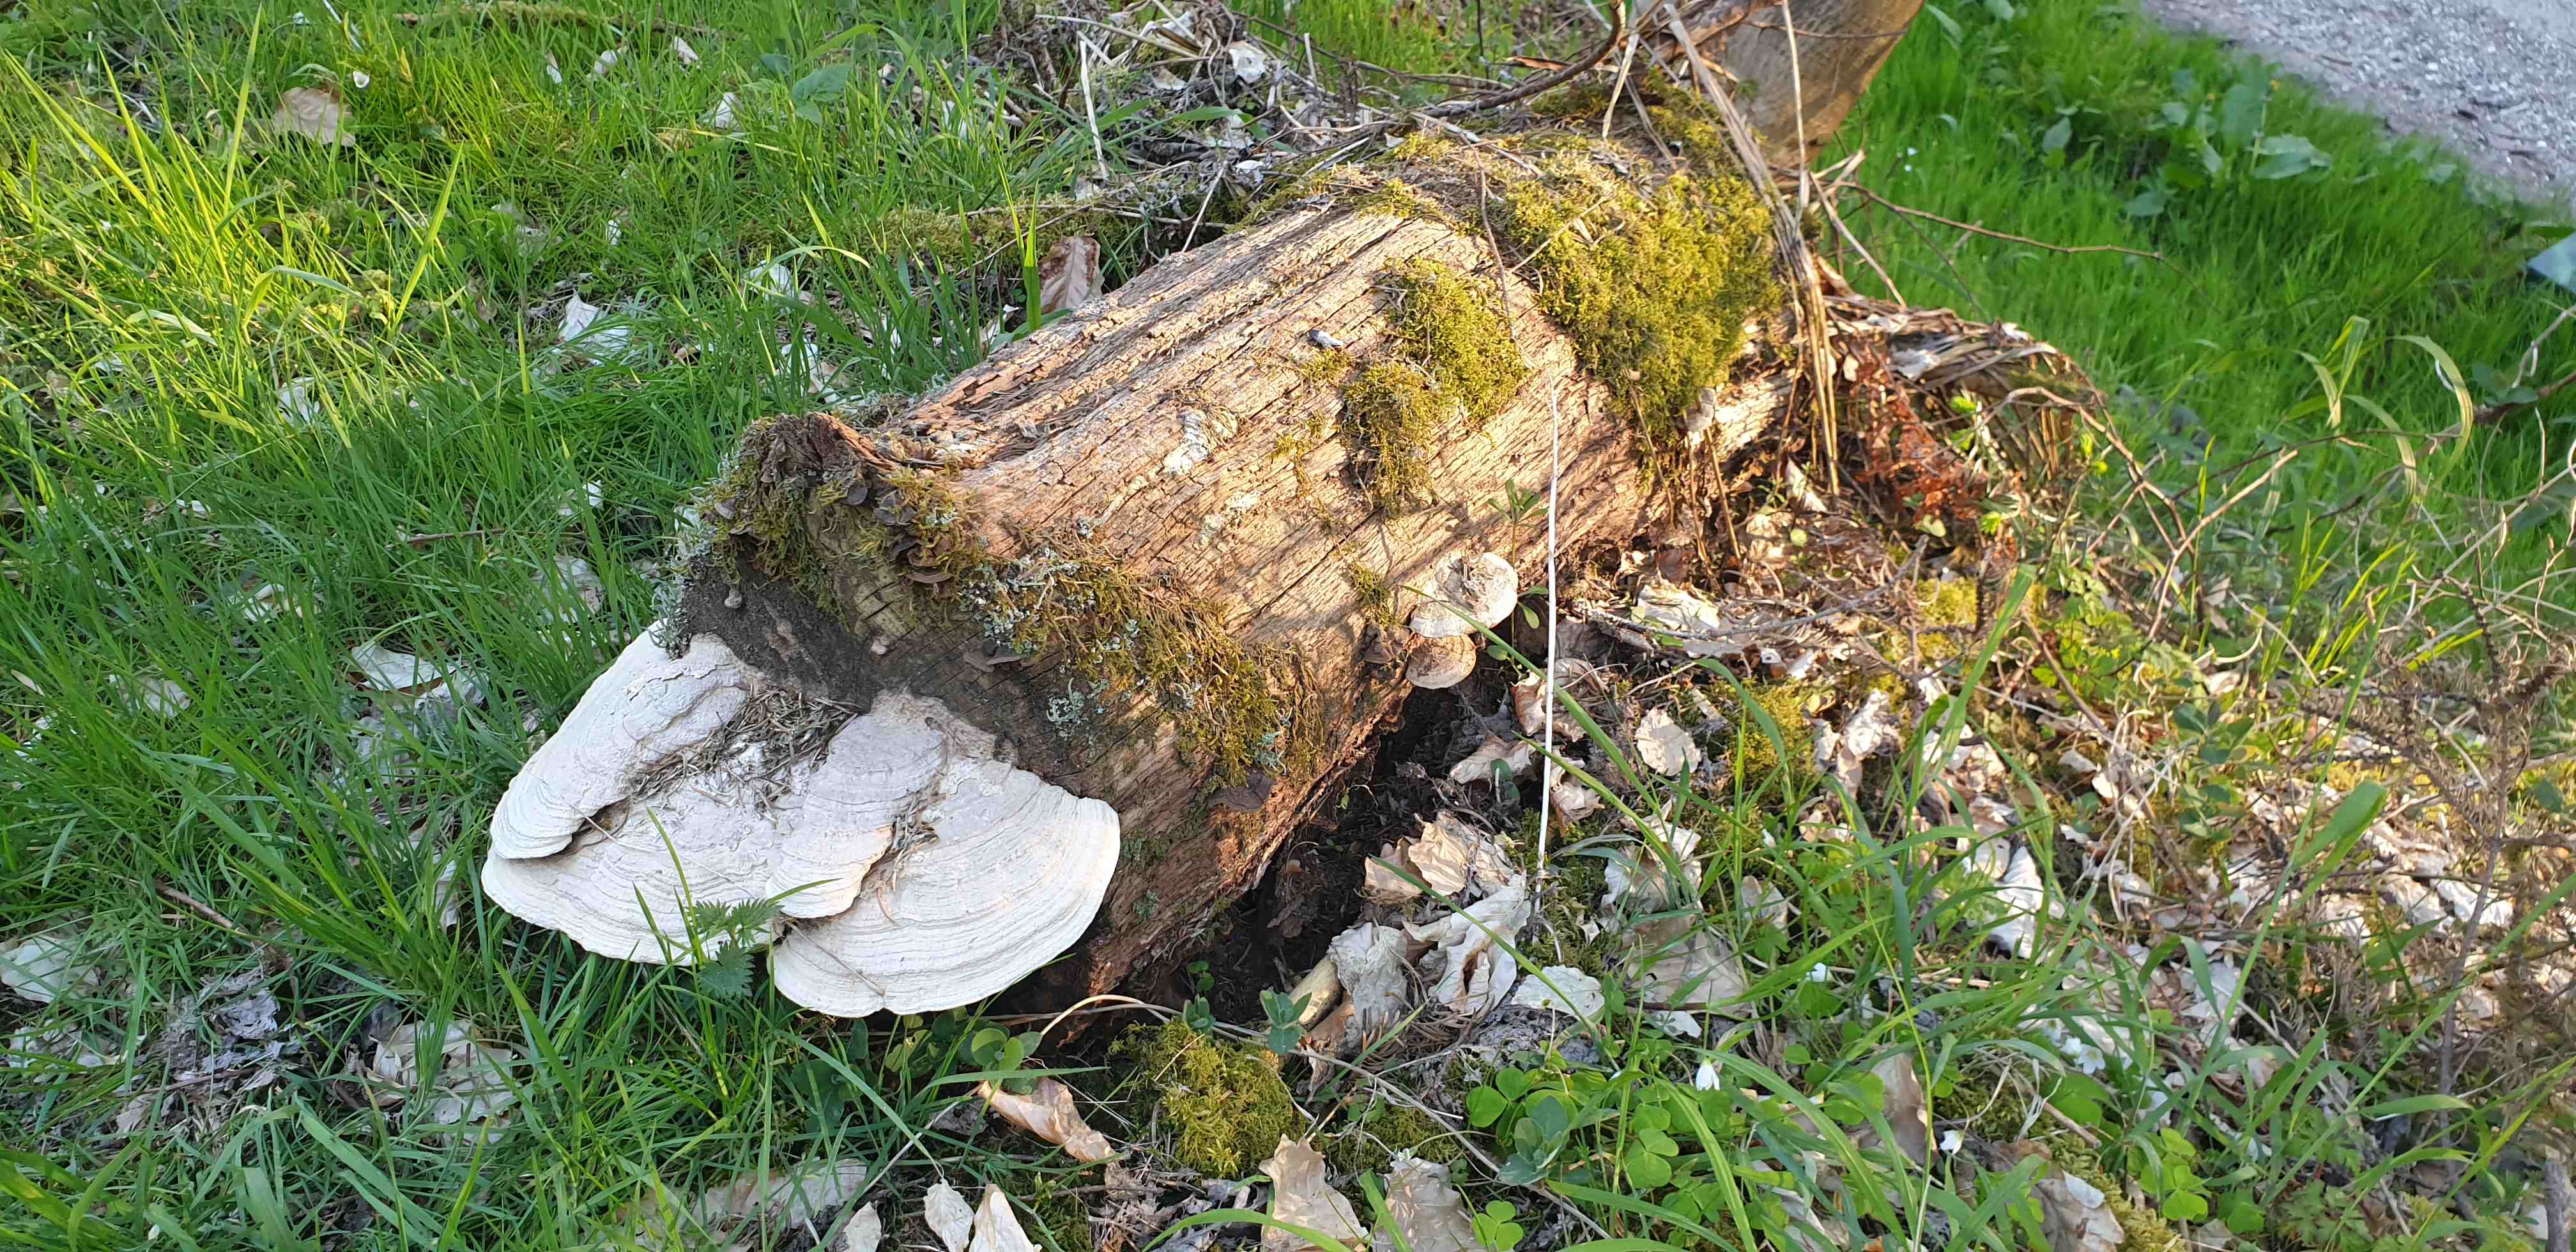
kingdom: Fungi
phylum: Basidiomycota
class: Agaricomycetes
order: Polyporales
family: Fomitopsidaceae
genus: Daedalea
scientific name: Daedalea quercina
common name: ege-labyrintsvamp
